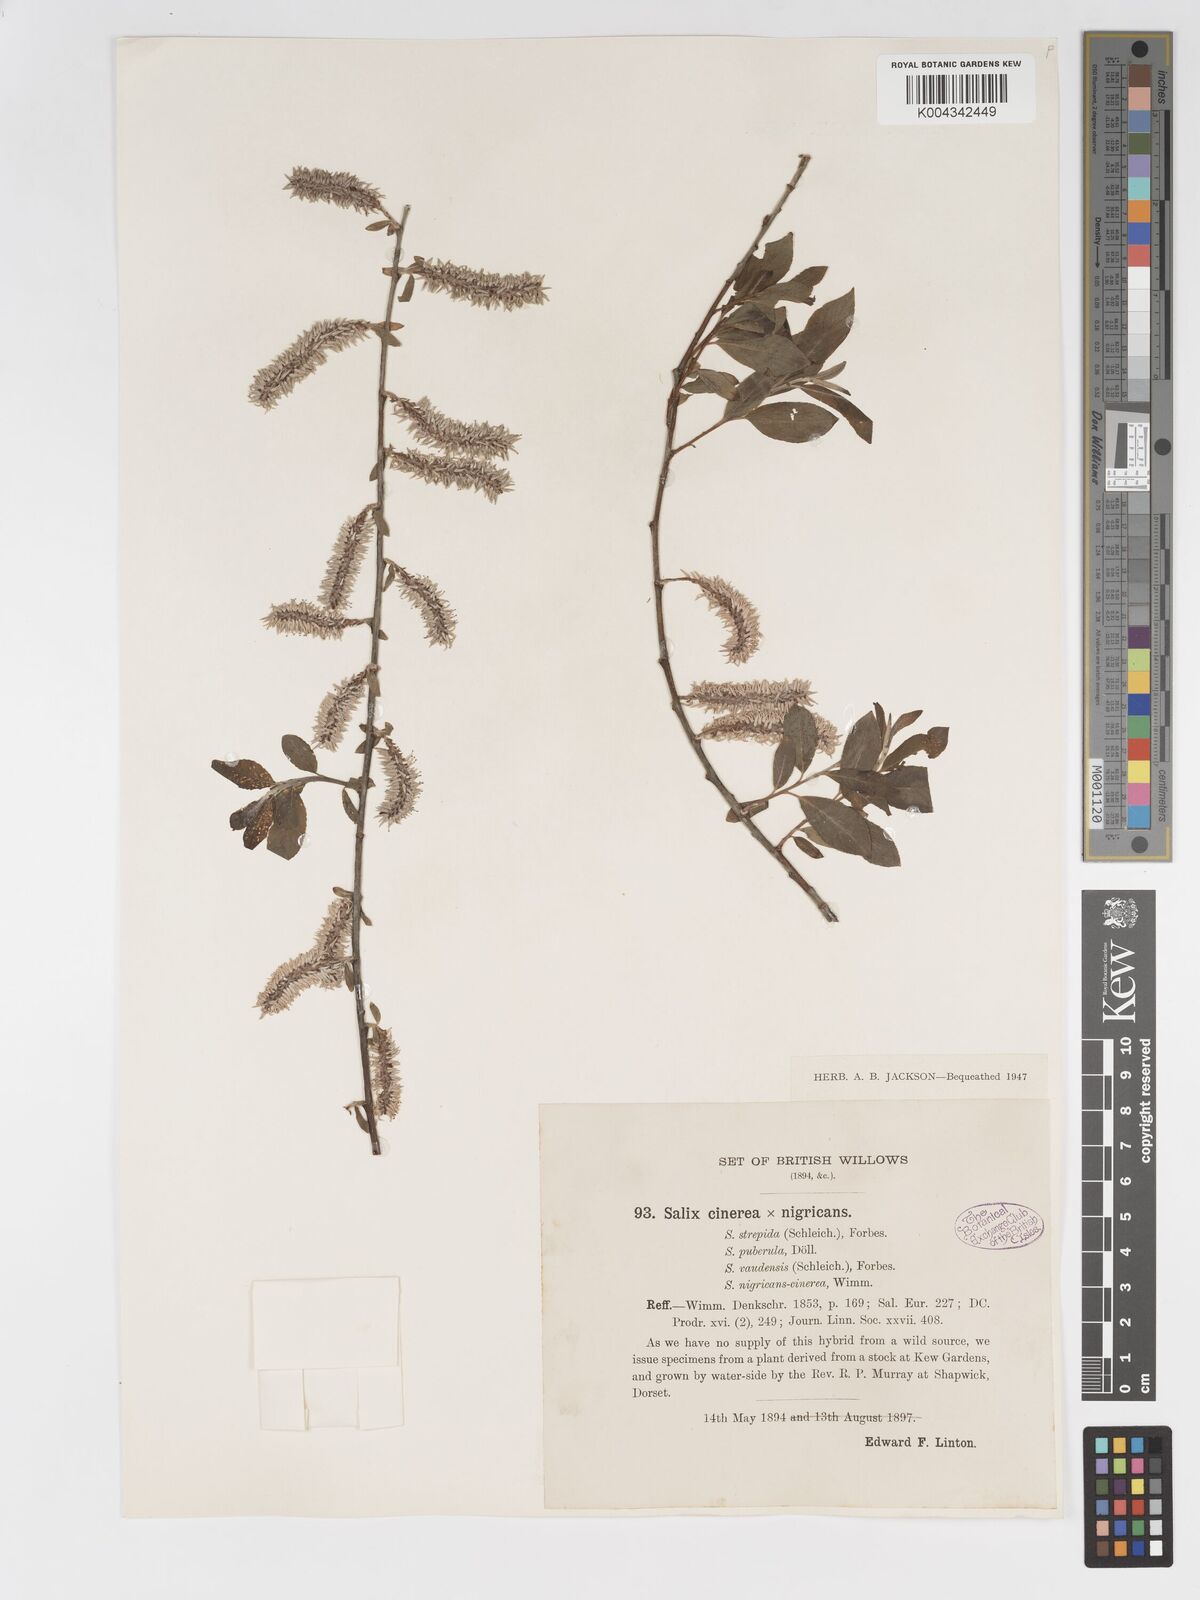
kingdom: Plantae
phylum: Tracheophyta
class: Magnoliopsida
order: Malpighiales
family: Salicaceae
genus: Salix
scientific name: Salix
